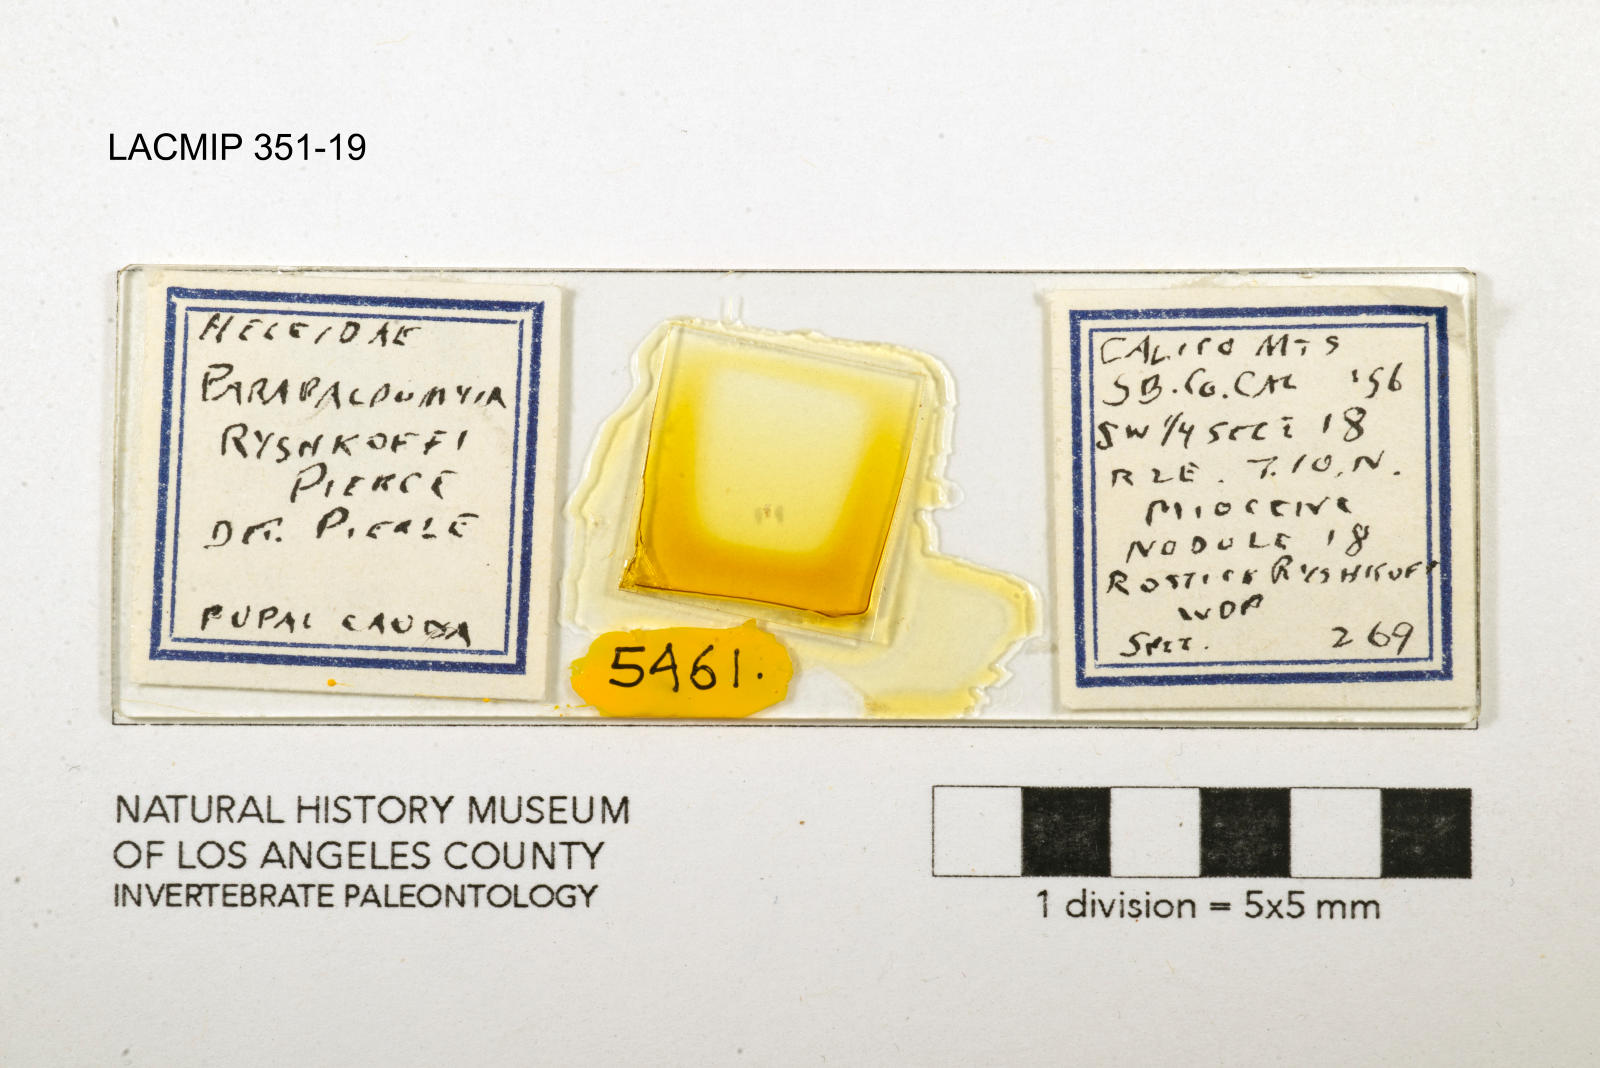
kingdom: Animalia
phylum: Arthropoda
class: Insecta
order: Diptera
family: Ceratopogonidae
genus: Palpomyia
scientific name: Palpomyia ryshkoffi
